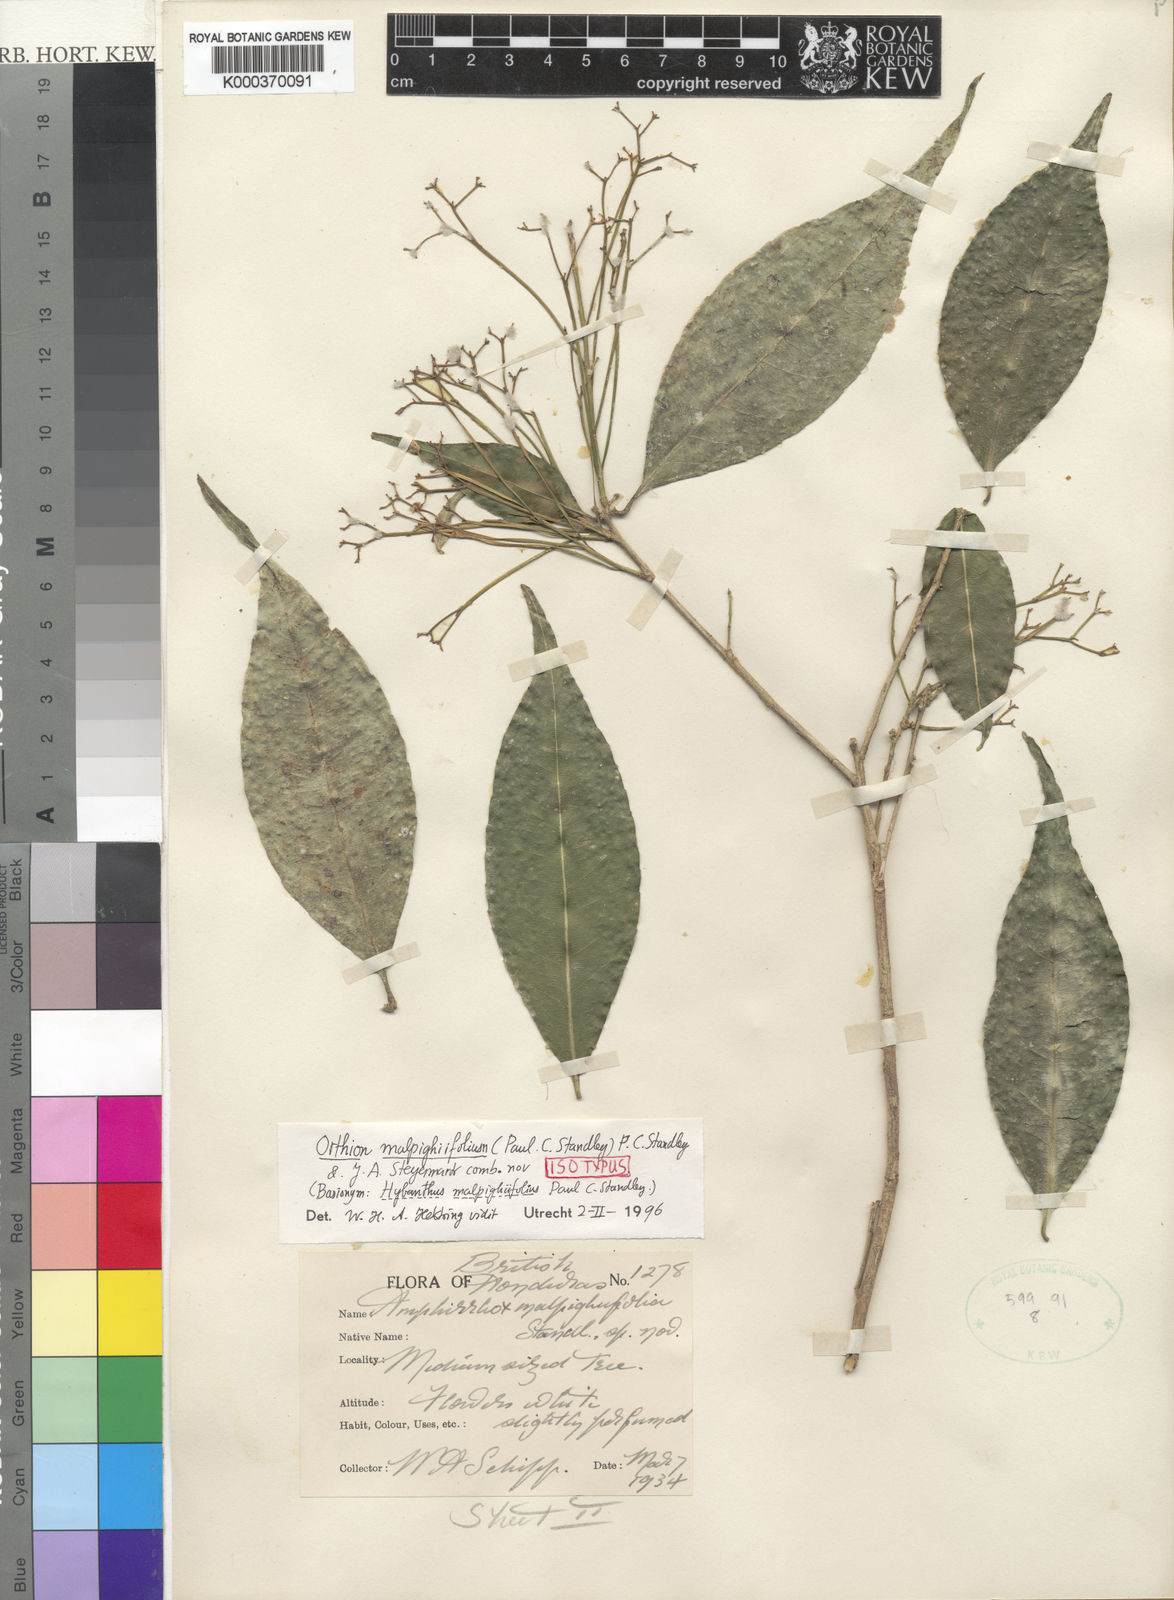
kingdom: Plantae
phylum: Tracheophyta
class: Magnoliopsida
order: Malpighiales
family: Violaceae
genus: Orthion
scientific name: Orthion malpighiifolium
